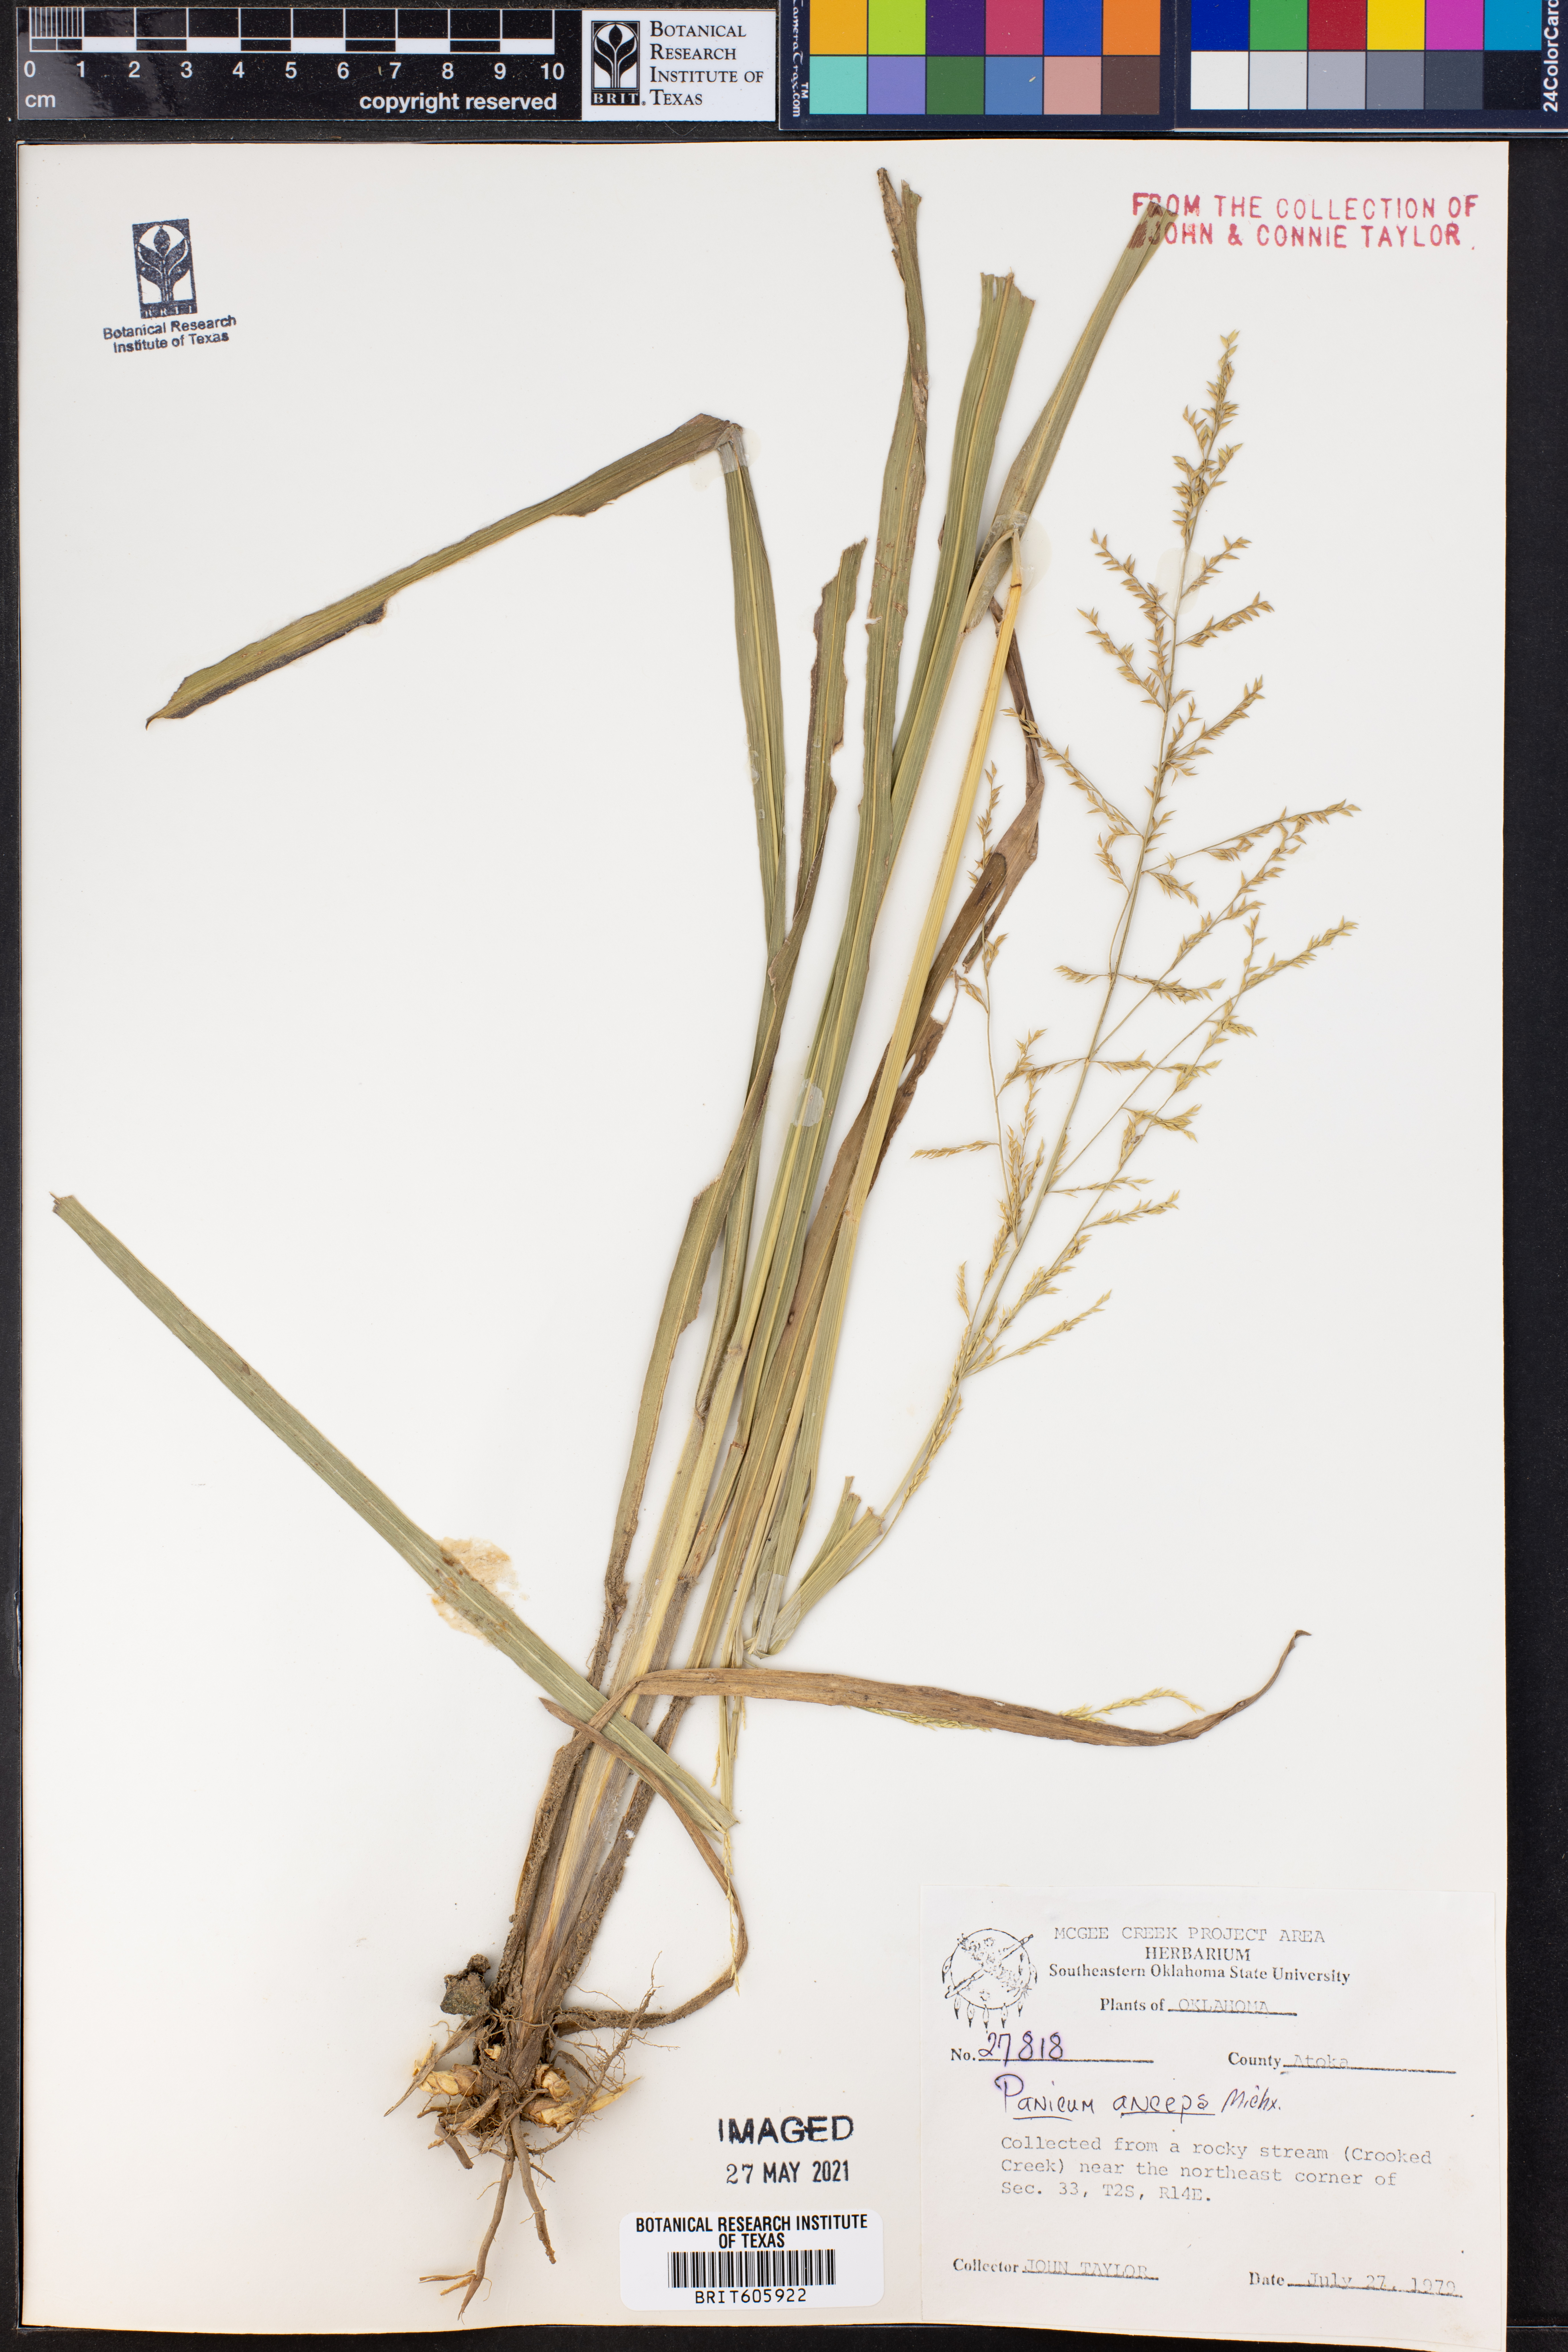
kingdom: Plantae
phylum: Tracheophyta
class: Liliopsida
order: Poales
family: Poaceae
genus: Coleataenia
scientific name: Coleataenia anceps
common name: Beaked panic grass
